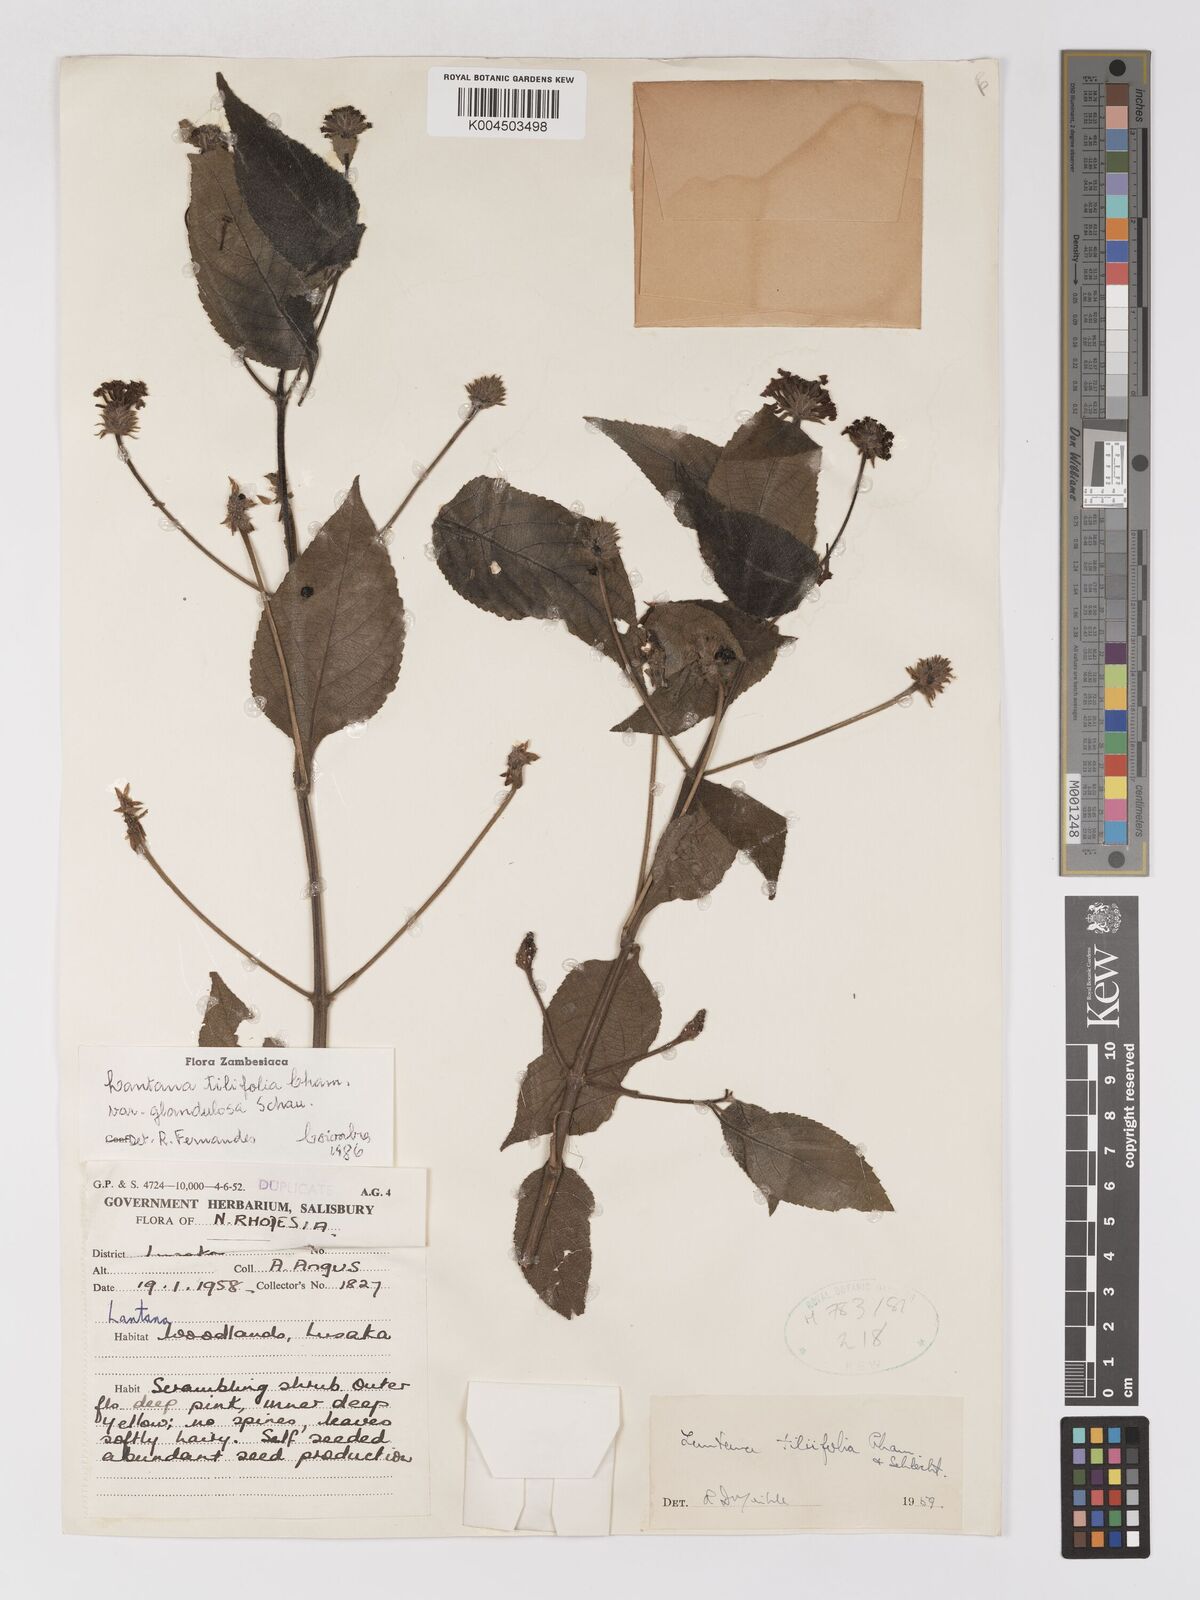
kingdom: Plantae
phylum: Tracheophyta
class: Magnoliopsida
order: Lamiales
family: Verbenaceae
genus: Lantana
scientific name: Lantana horrida
